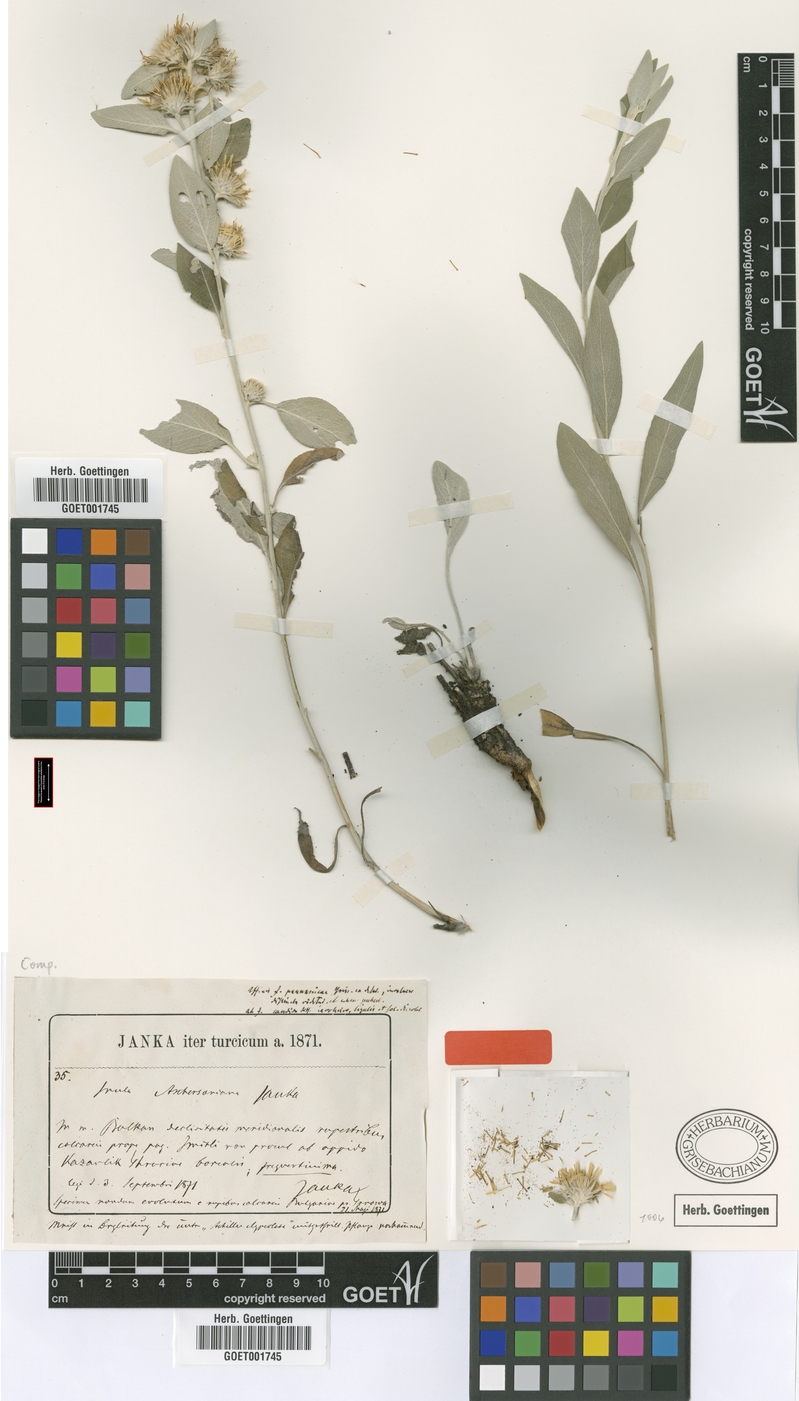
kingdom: Plantae
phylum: Tracheophyta
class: Magnoliopsida
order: Asterales
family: Asteraceae
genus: Pentanema
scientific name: Pentanema aschersonianum
